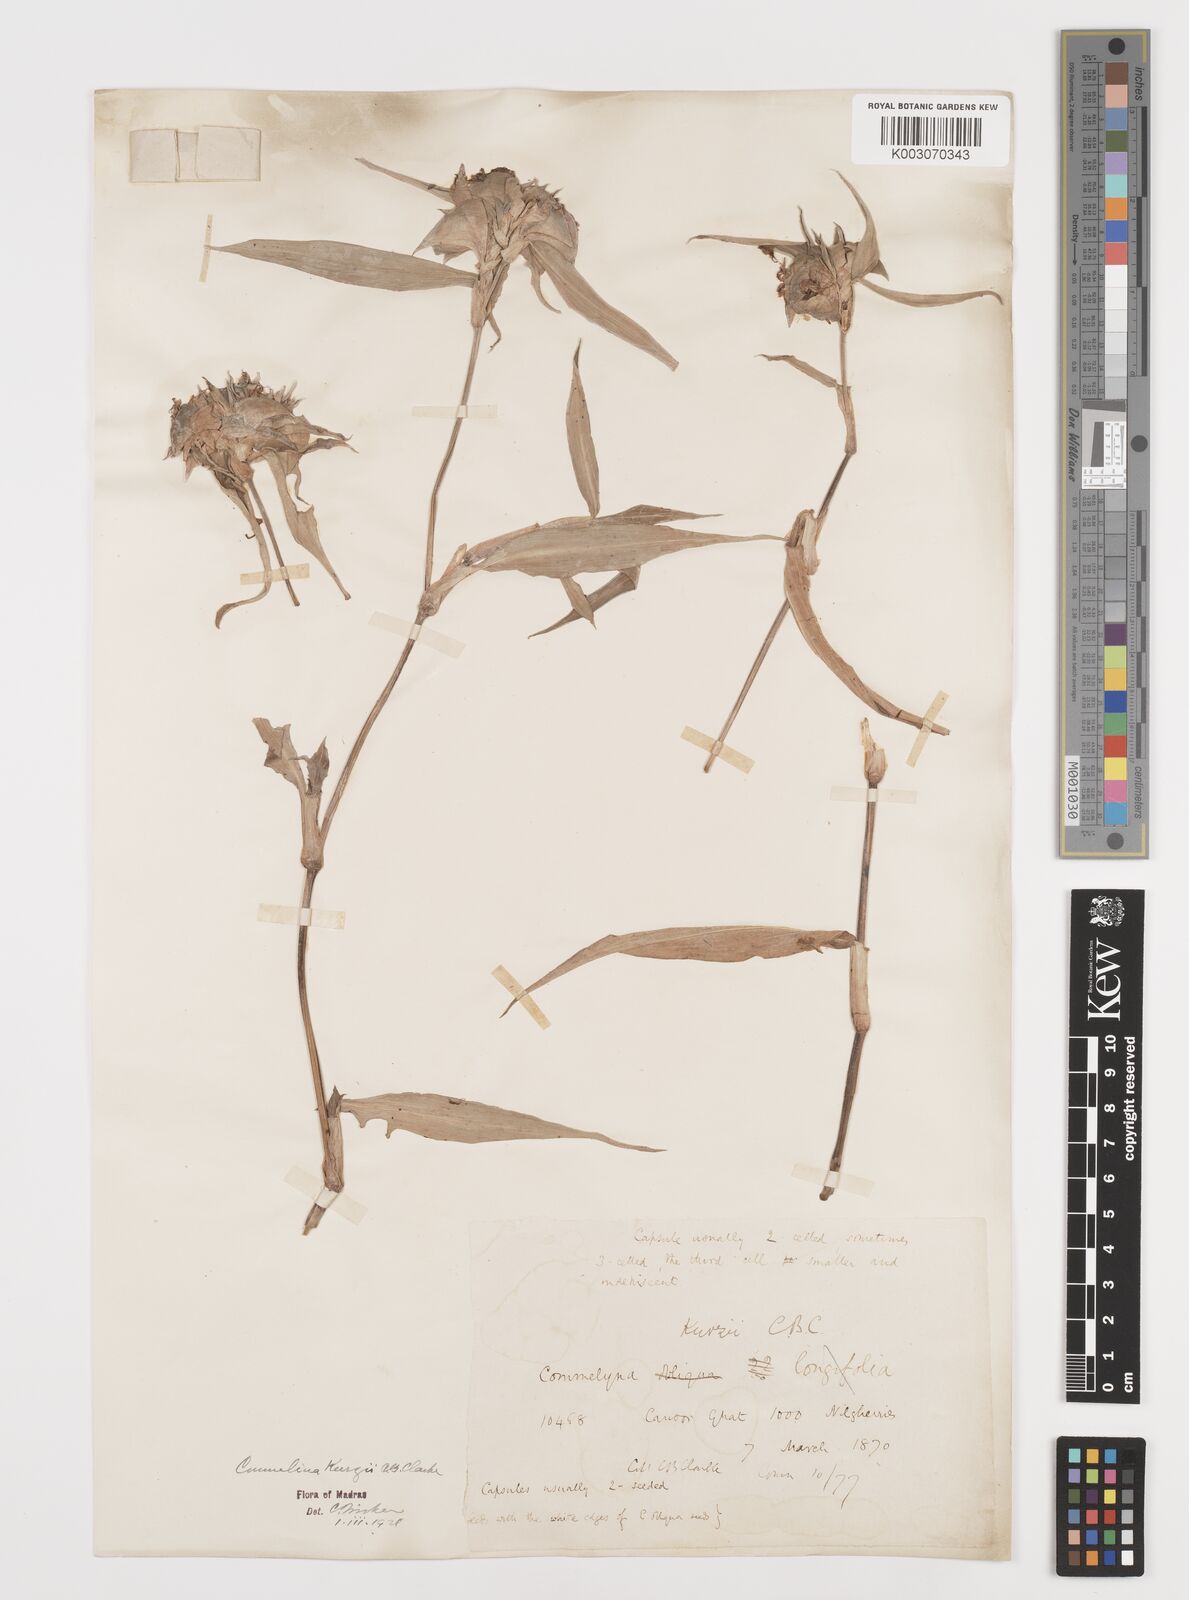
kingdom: Plantae
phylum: Tracheophyta
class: Liliopsida
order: Commelinales
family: Commelinaceae
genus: Commelina
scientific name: Commelina undulata
